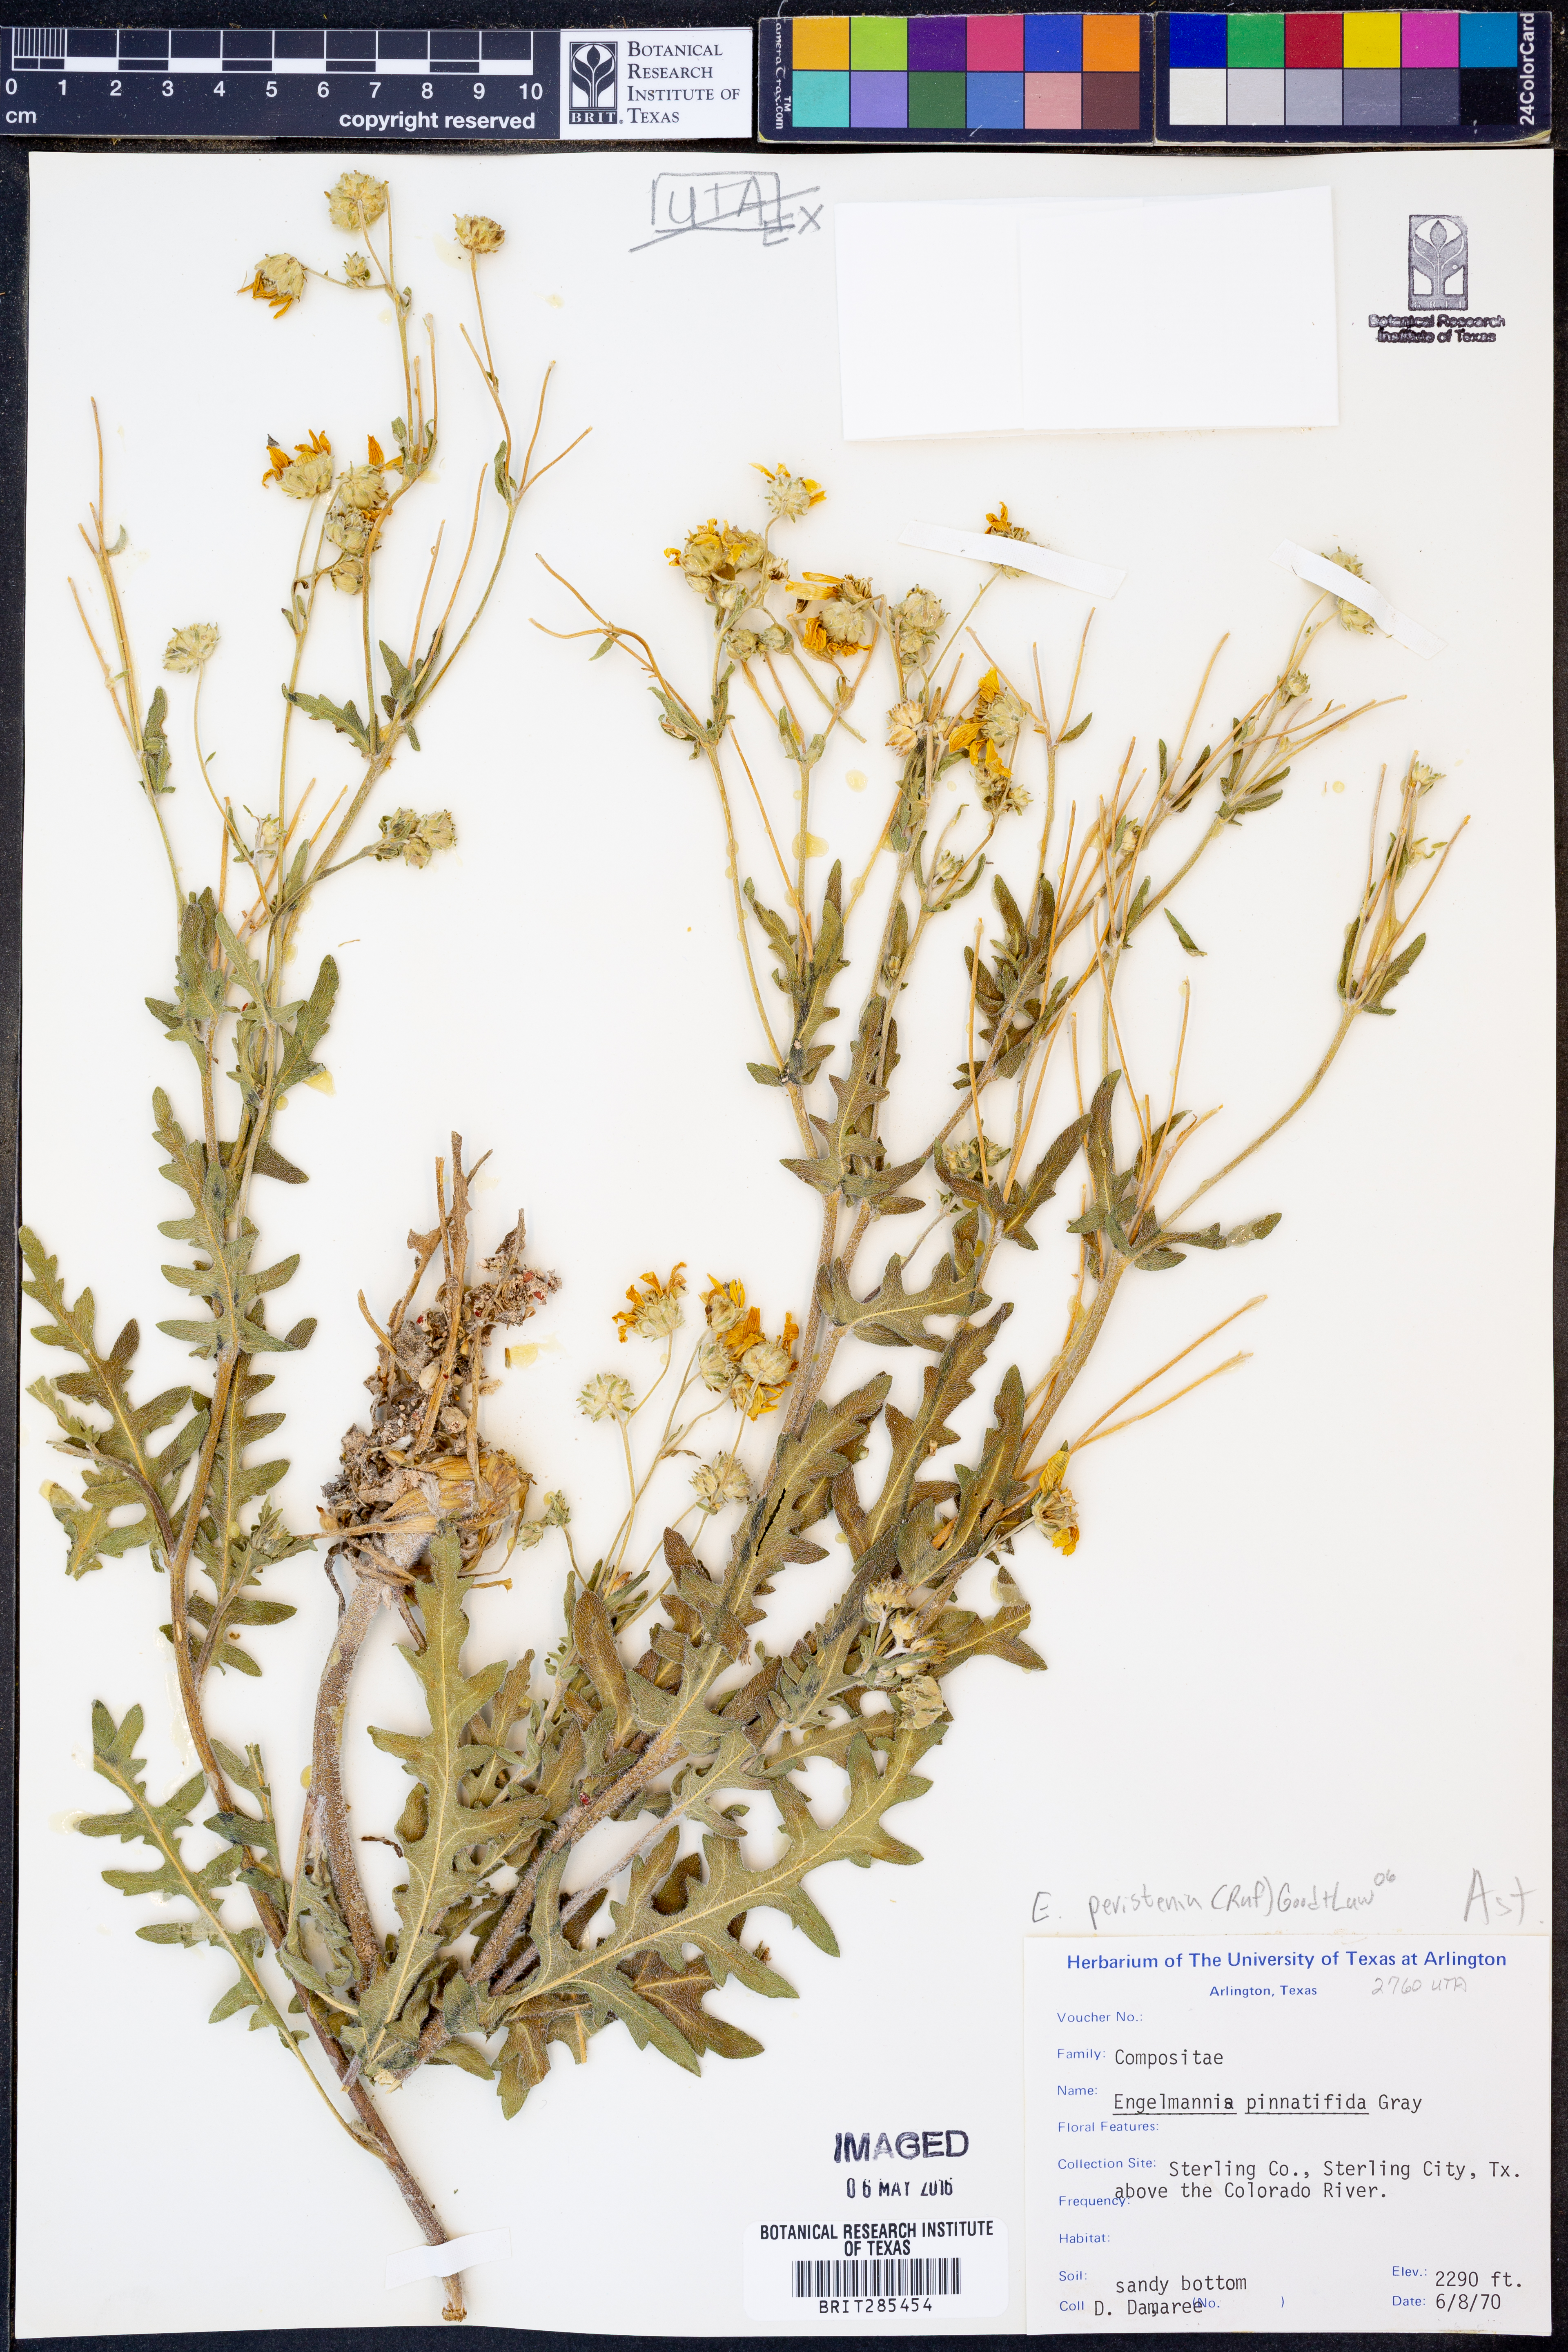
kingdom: Plantae
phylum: Tracheophyta
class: Magnoliopsida
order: Asterales
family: Asteraceae
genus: Engelmannia
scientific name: Engelmannia peristenia
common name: Engelmann's daisy
